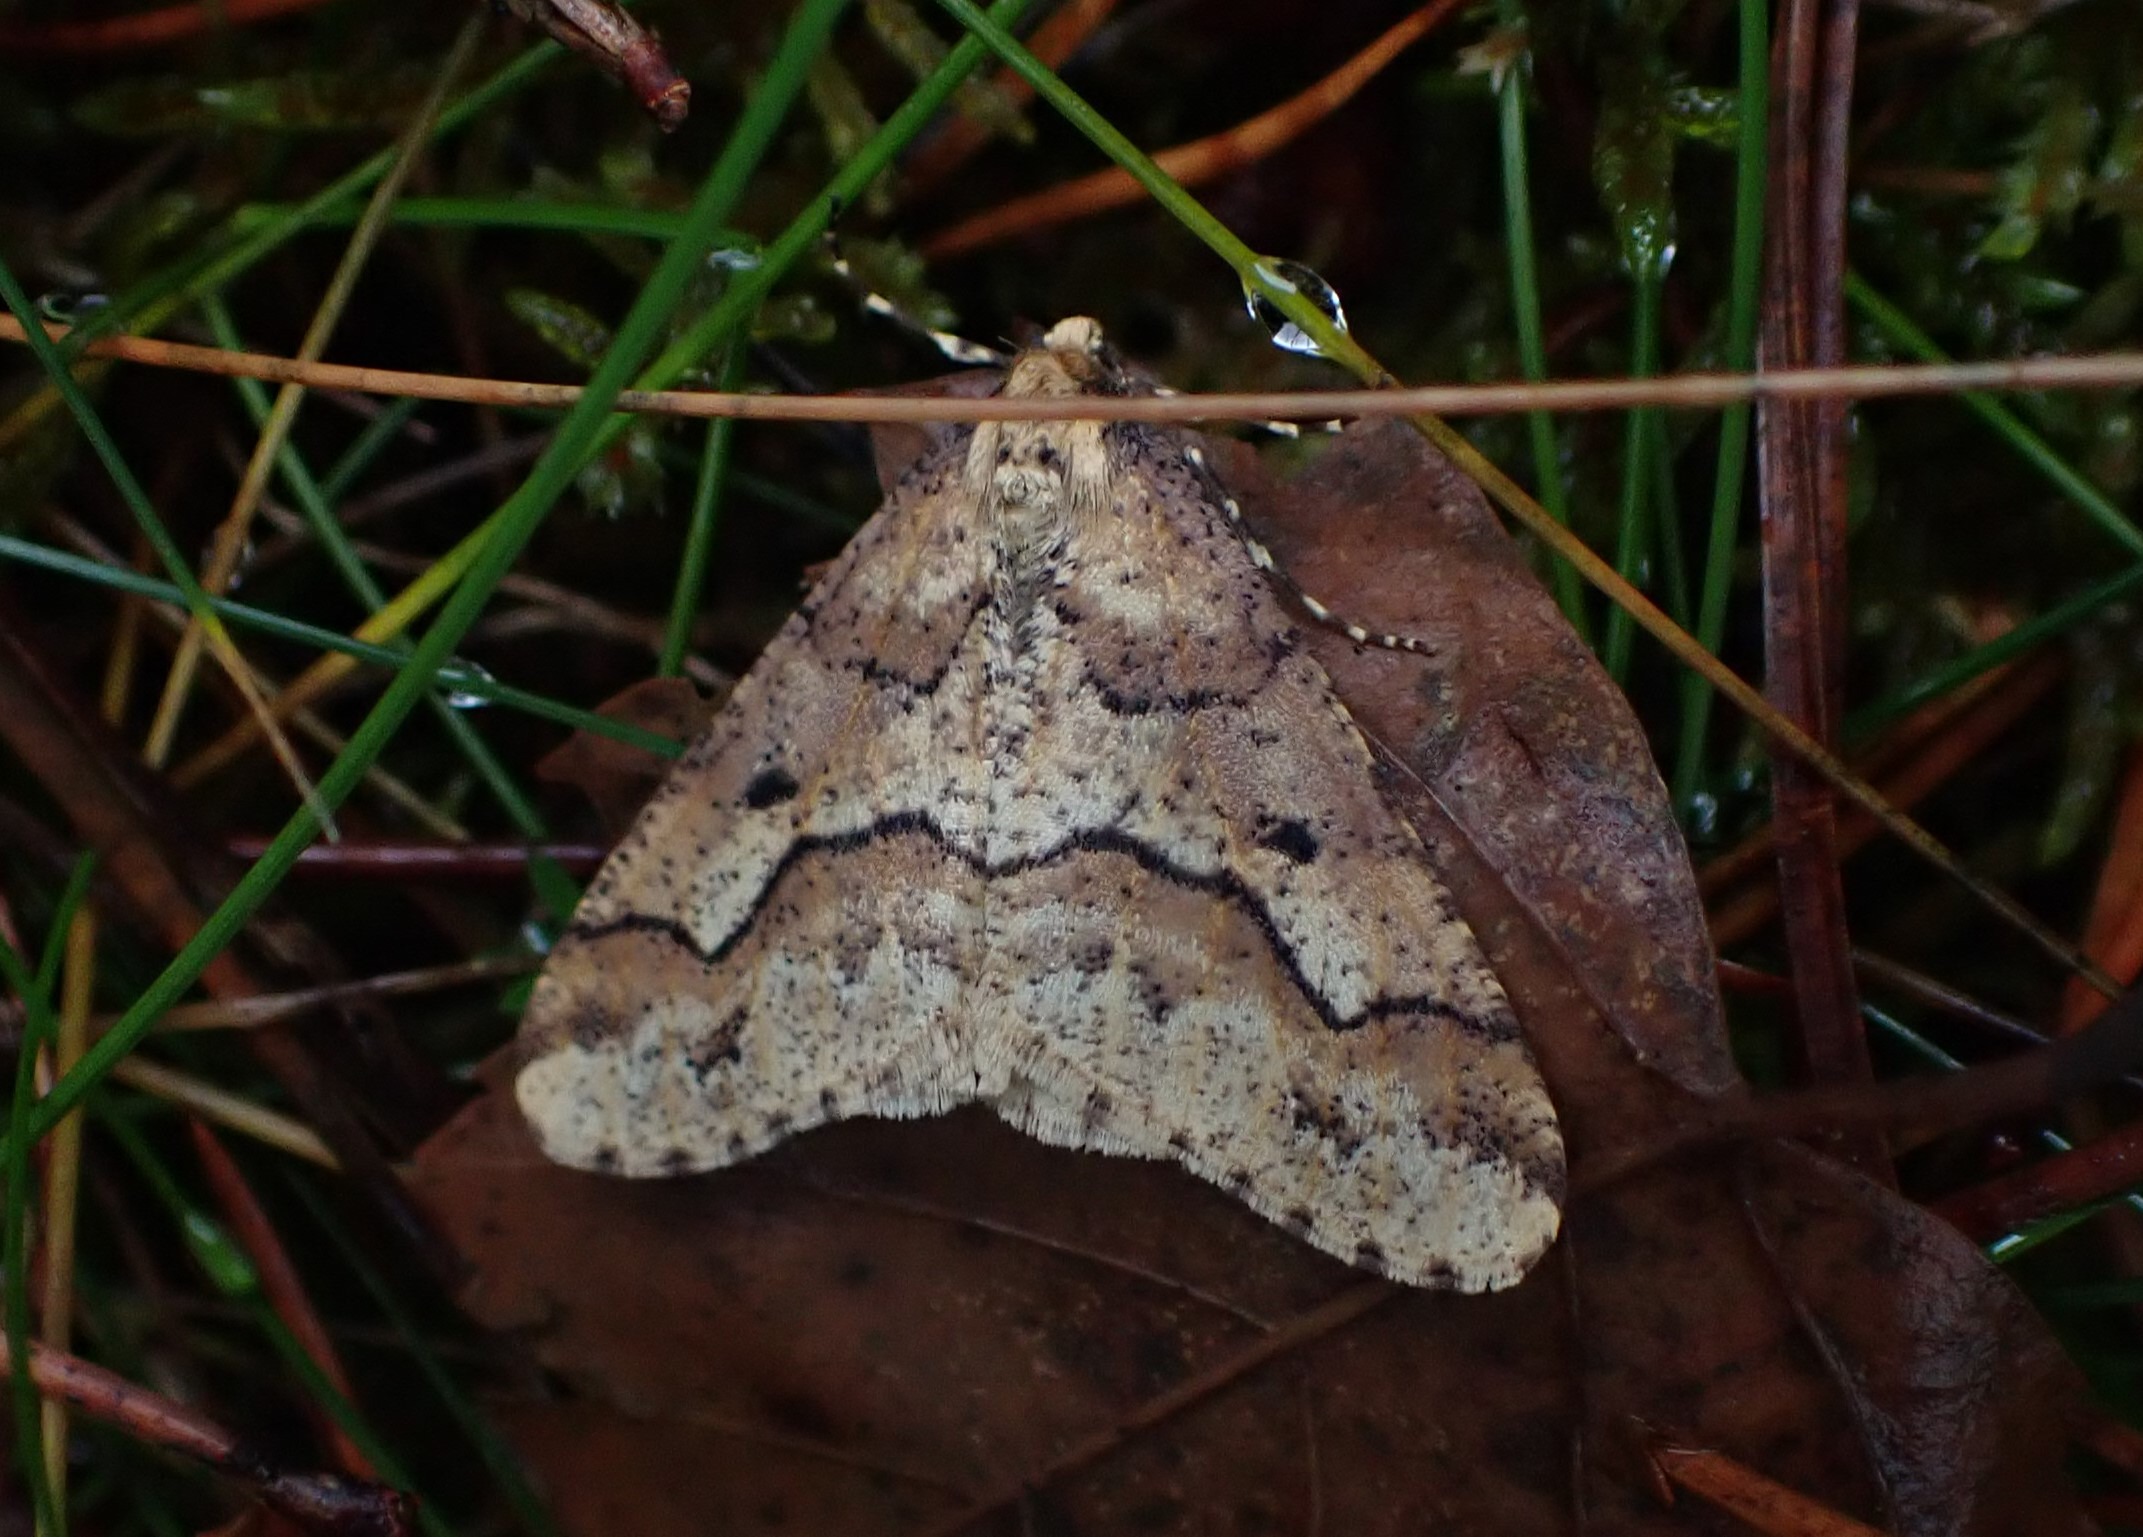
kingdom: Animalia
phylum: Arthropoda
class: Insecta
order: Lepidoptera
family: Geometridae
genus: Erannis
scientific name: Erannis defoliaria
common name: Stor frostmåler
